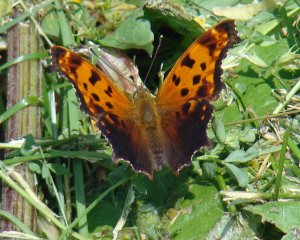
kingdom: Animalia
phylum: Arthropoda
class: Insecta
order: Lepidoptera
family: Nymphalidae
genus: Polygonia
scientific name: Polygonia comma
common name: Eastern Comma
